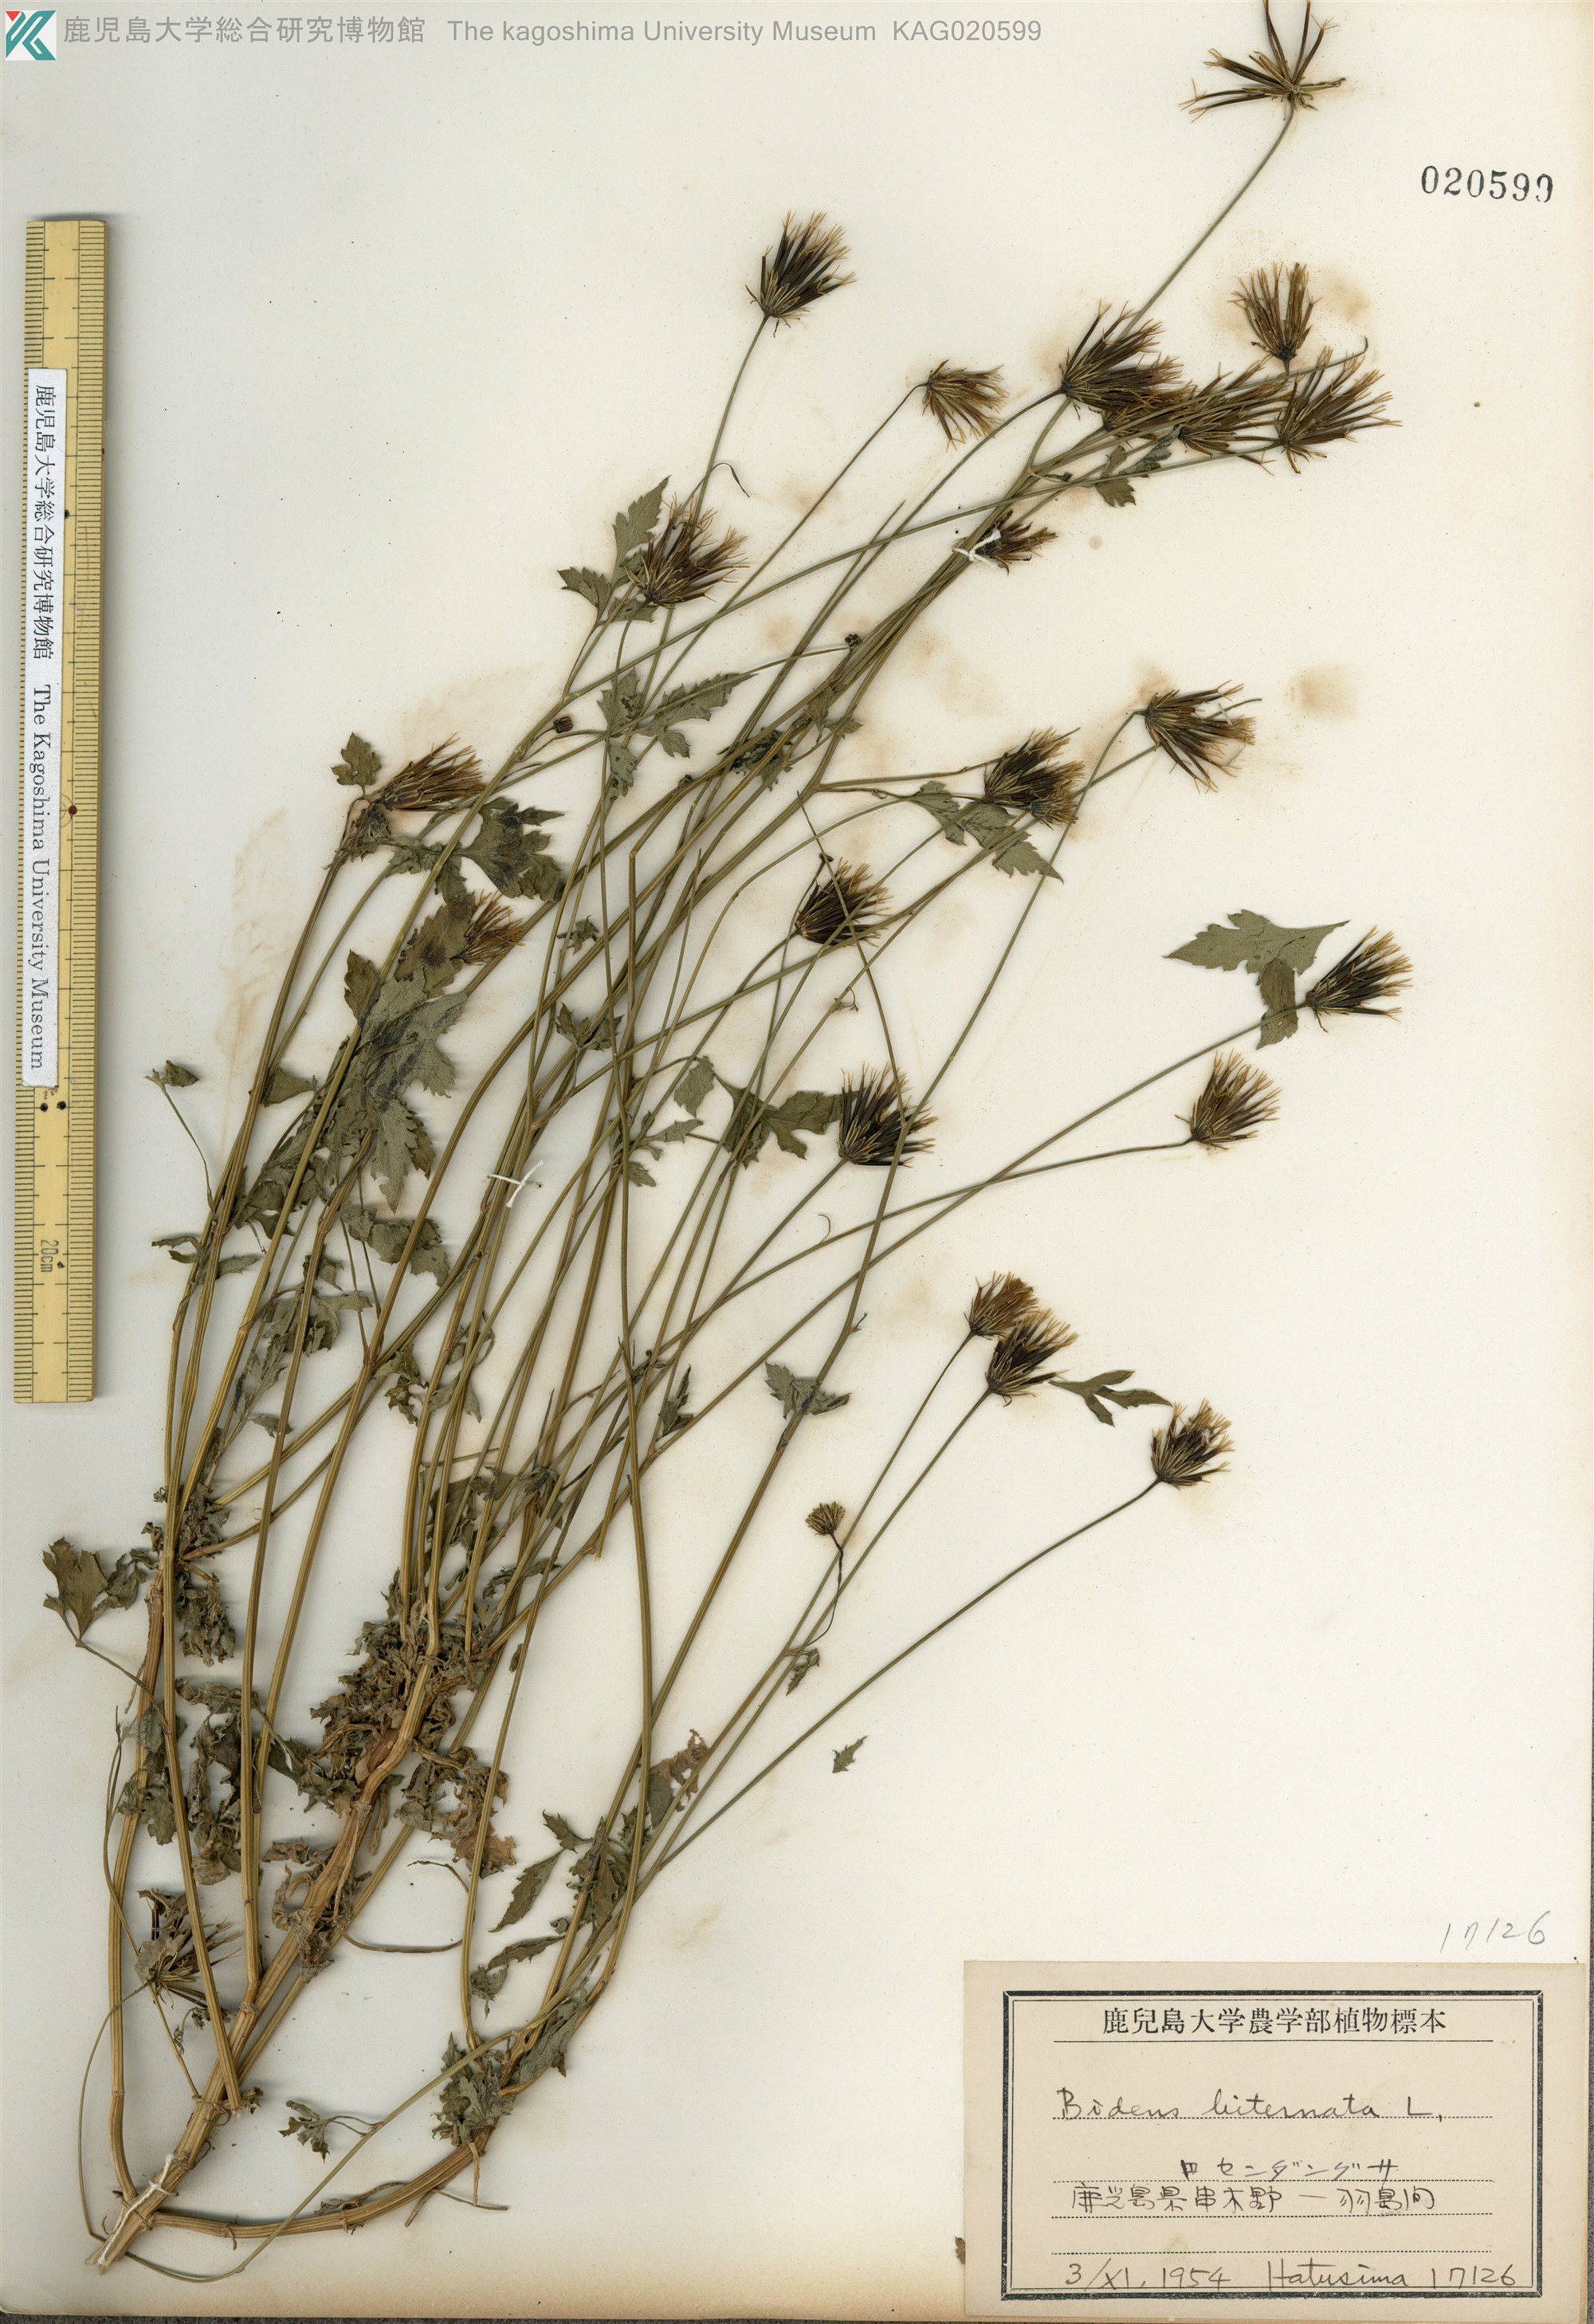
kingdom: Plantae
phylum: Tracheophyta
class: Magnoliopsida
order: Asterales
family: Asteraceae
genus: Bidens
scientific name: Bidens biternata
